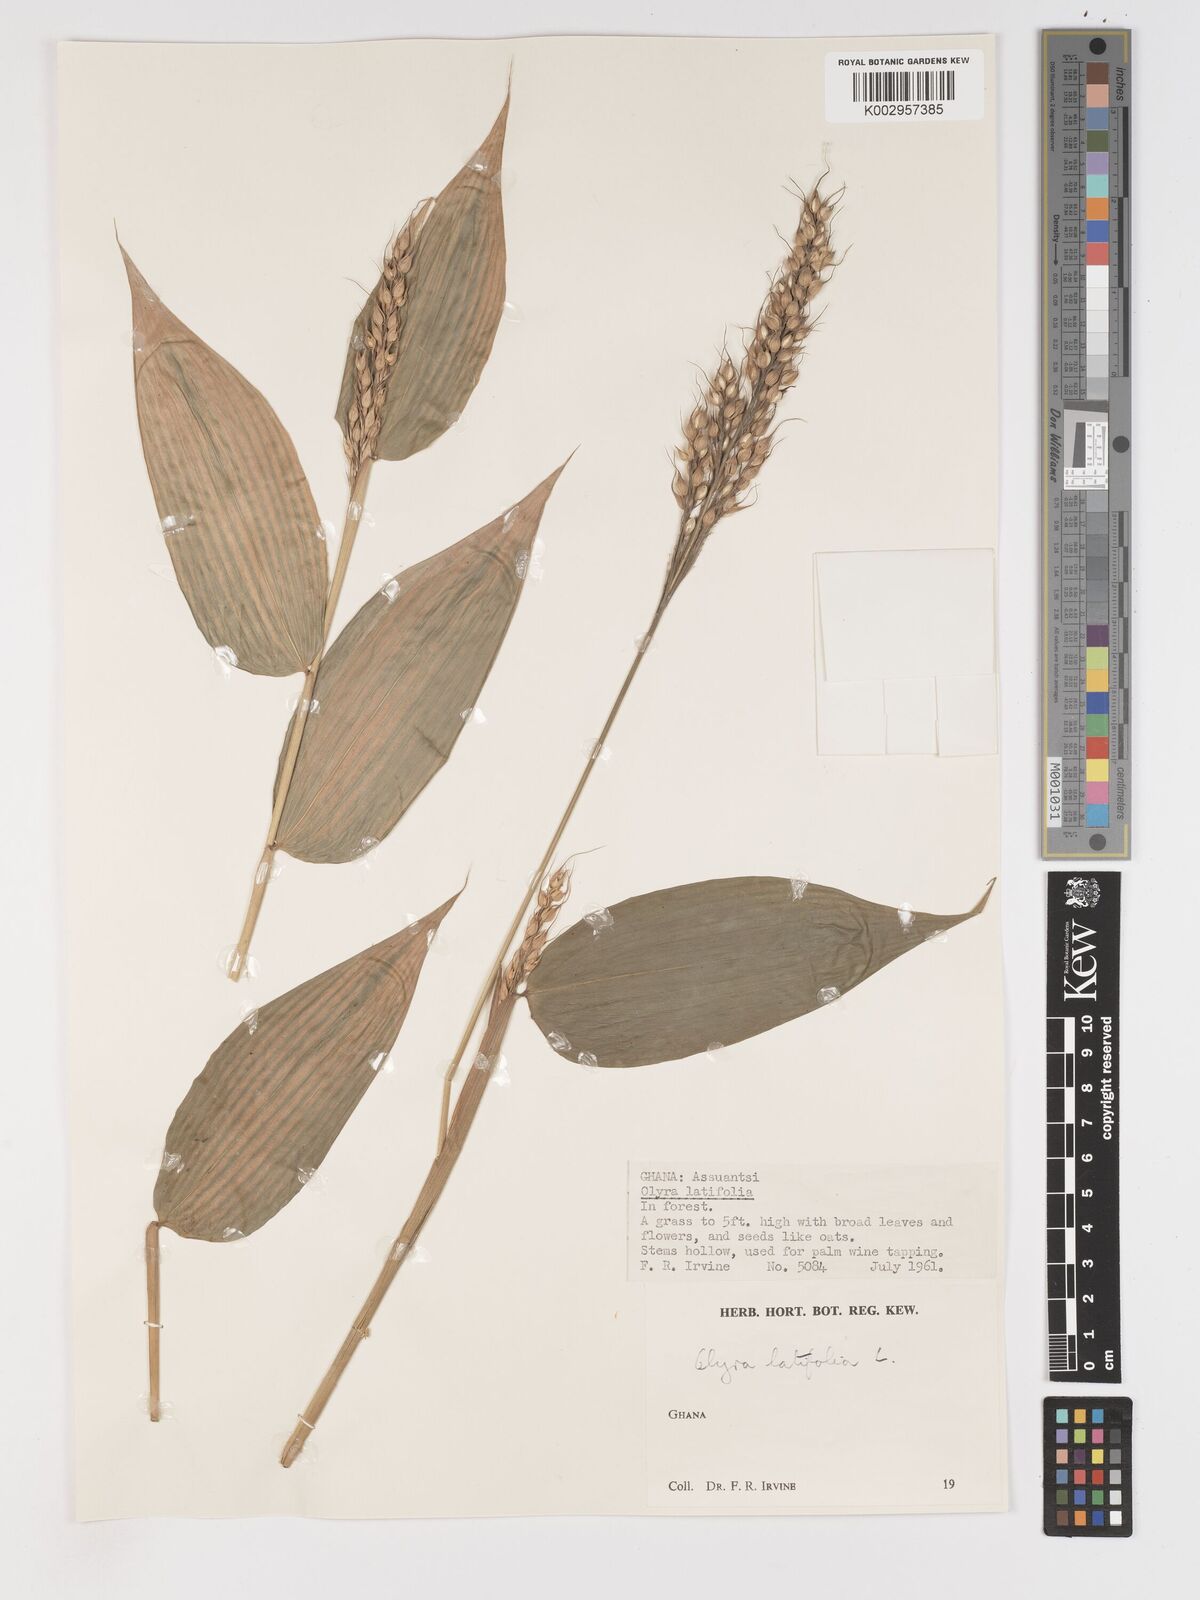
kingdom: Plantae
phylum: Tracheophyta
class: Liliopsida
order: Poales
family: Poaceae
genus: Olyra
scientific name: Olyra latifolia
